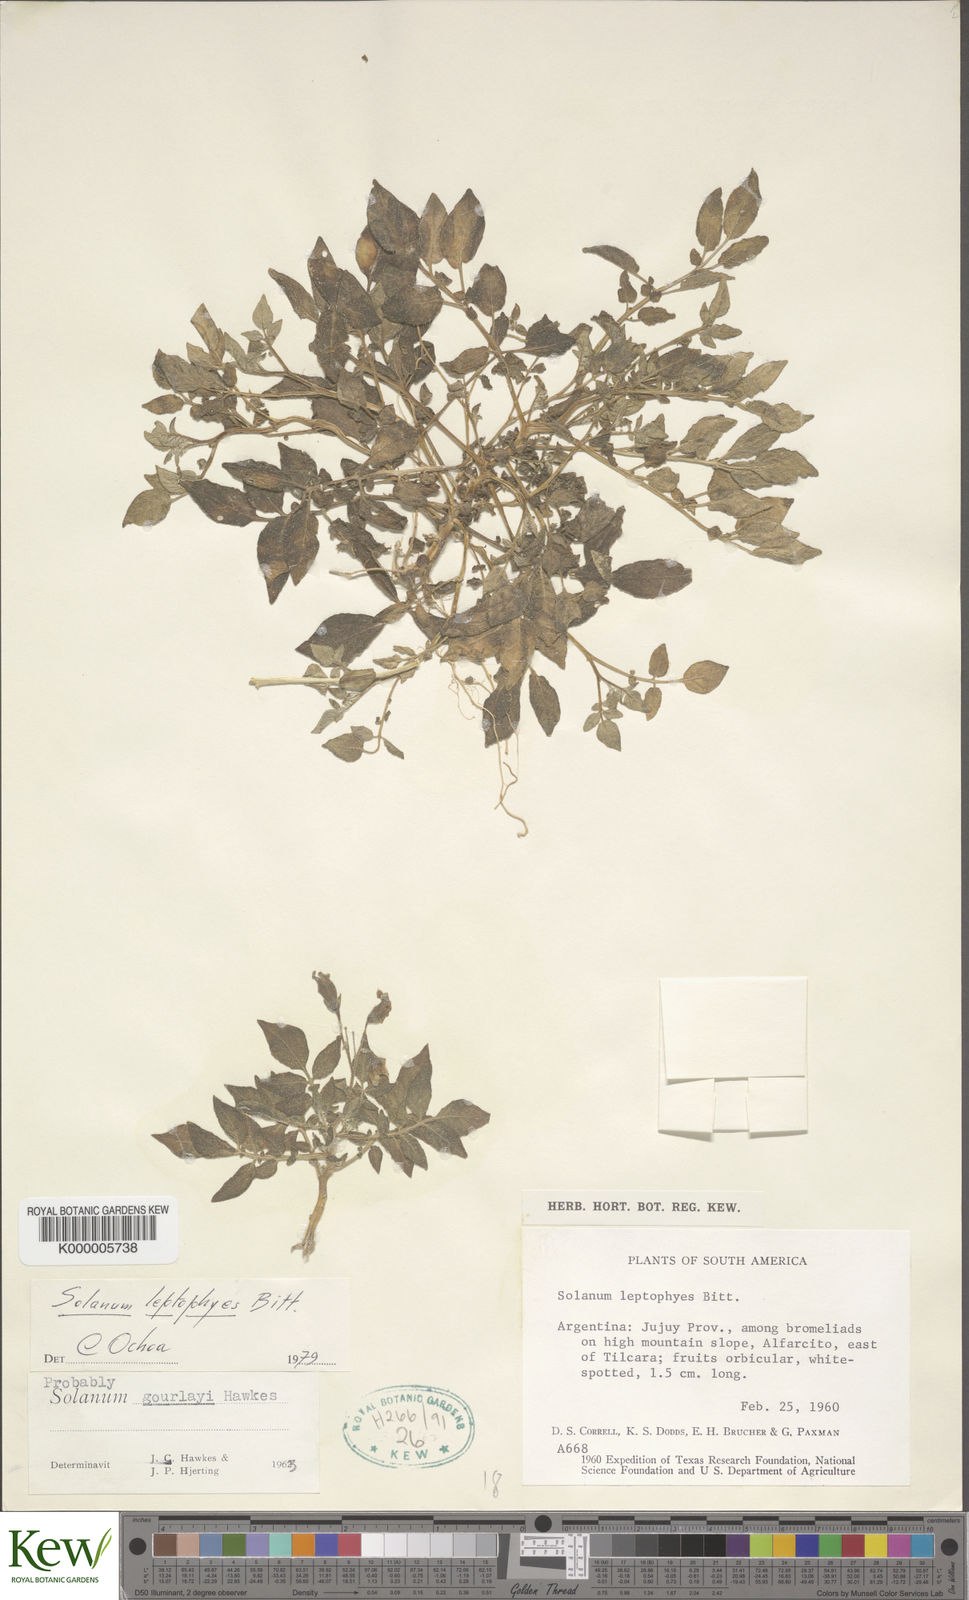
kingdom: Plantae
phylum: Tracheophyta
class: Magnoliopsida
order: Solanales
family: Solanaceae
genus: Solanum
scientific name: Solanum brevicaule
